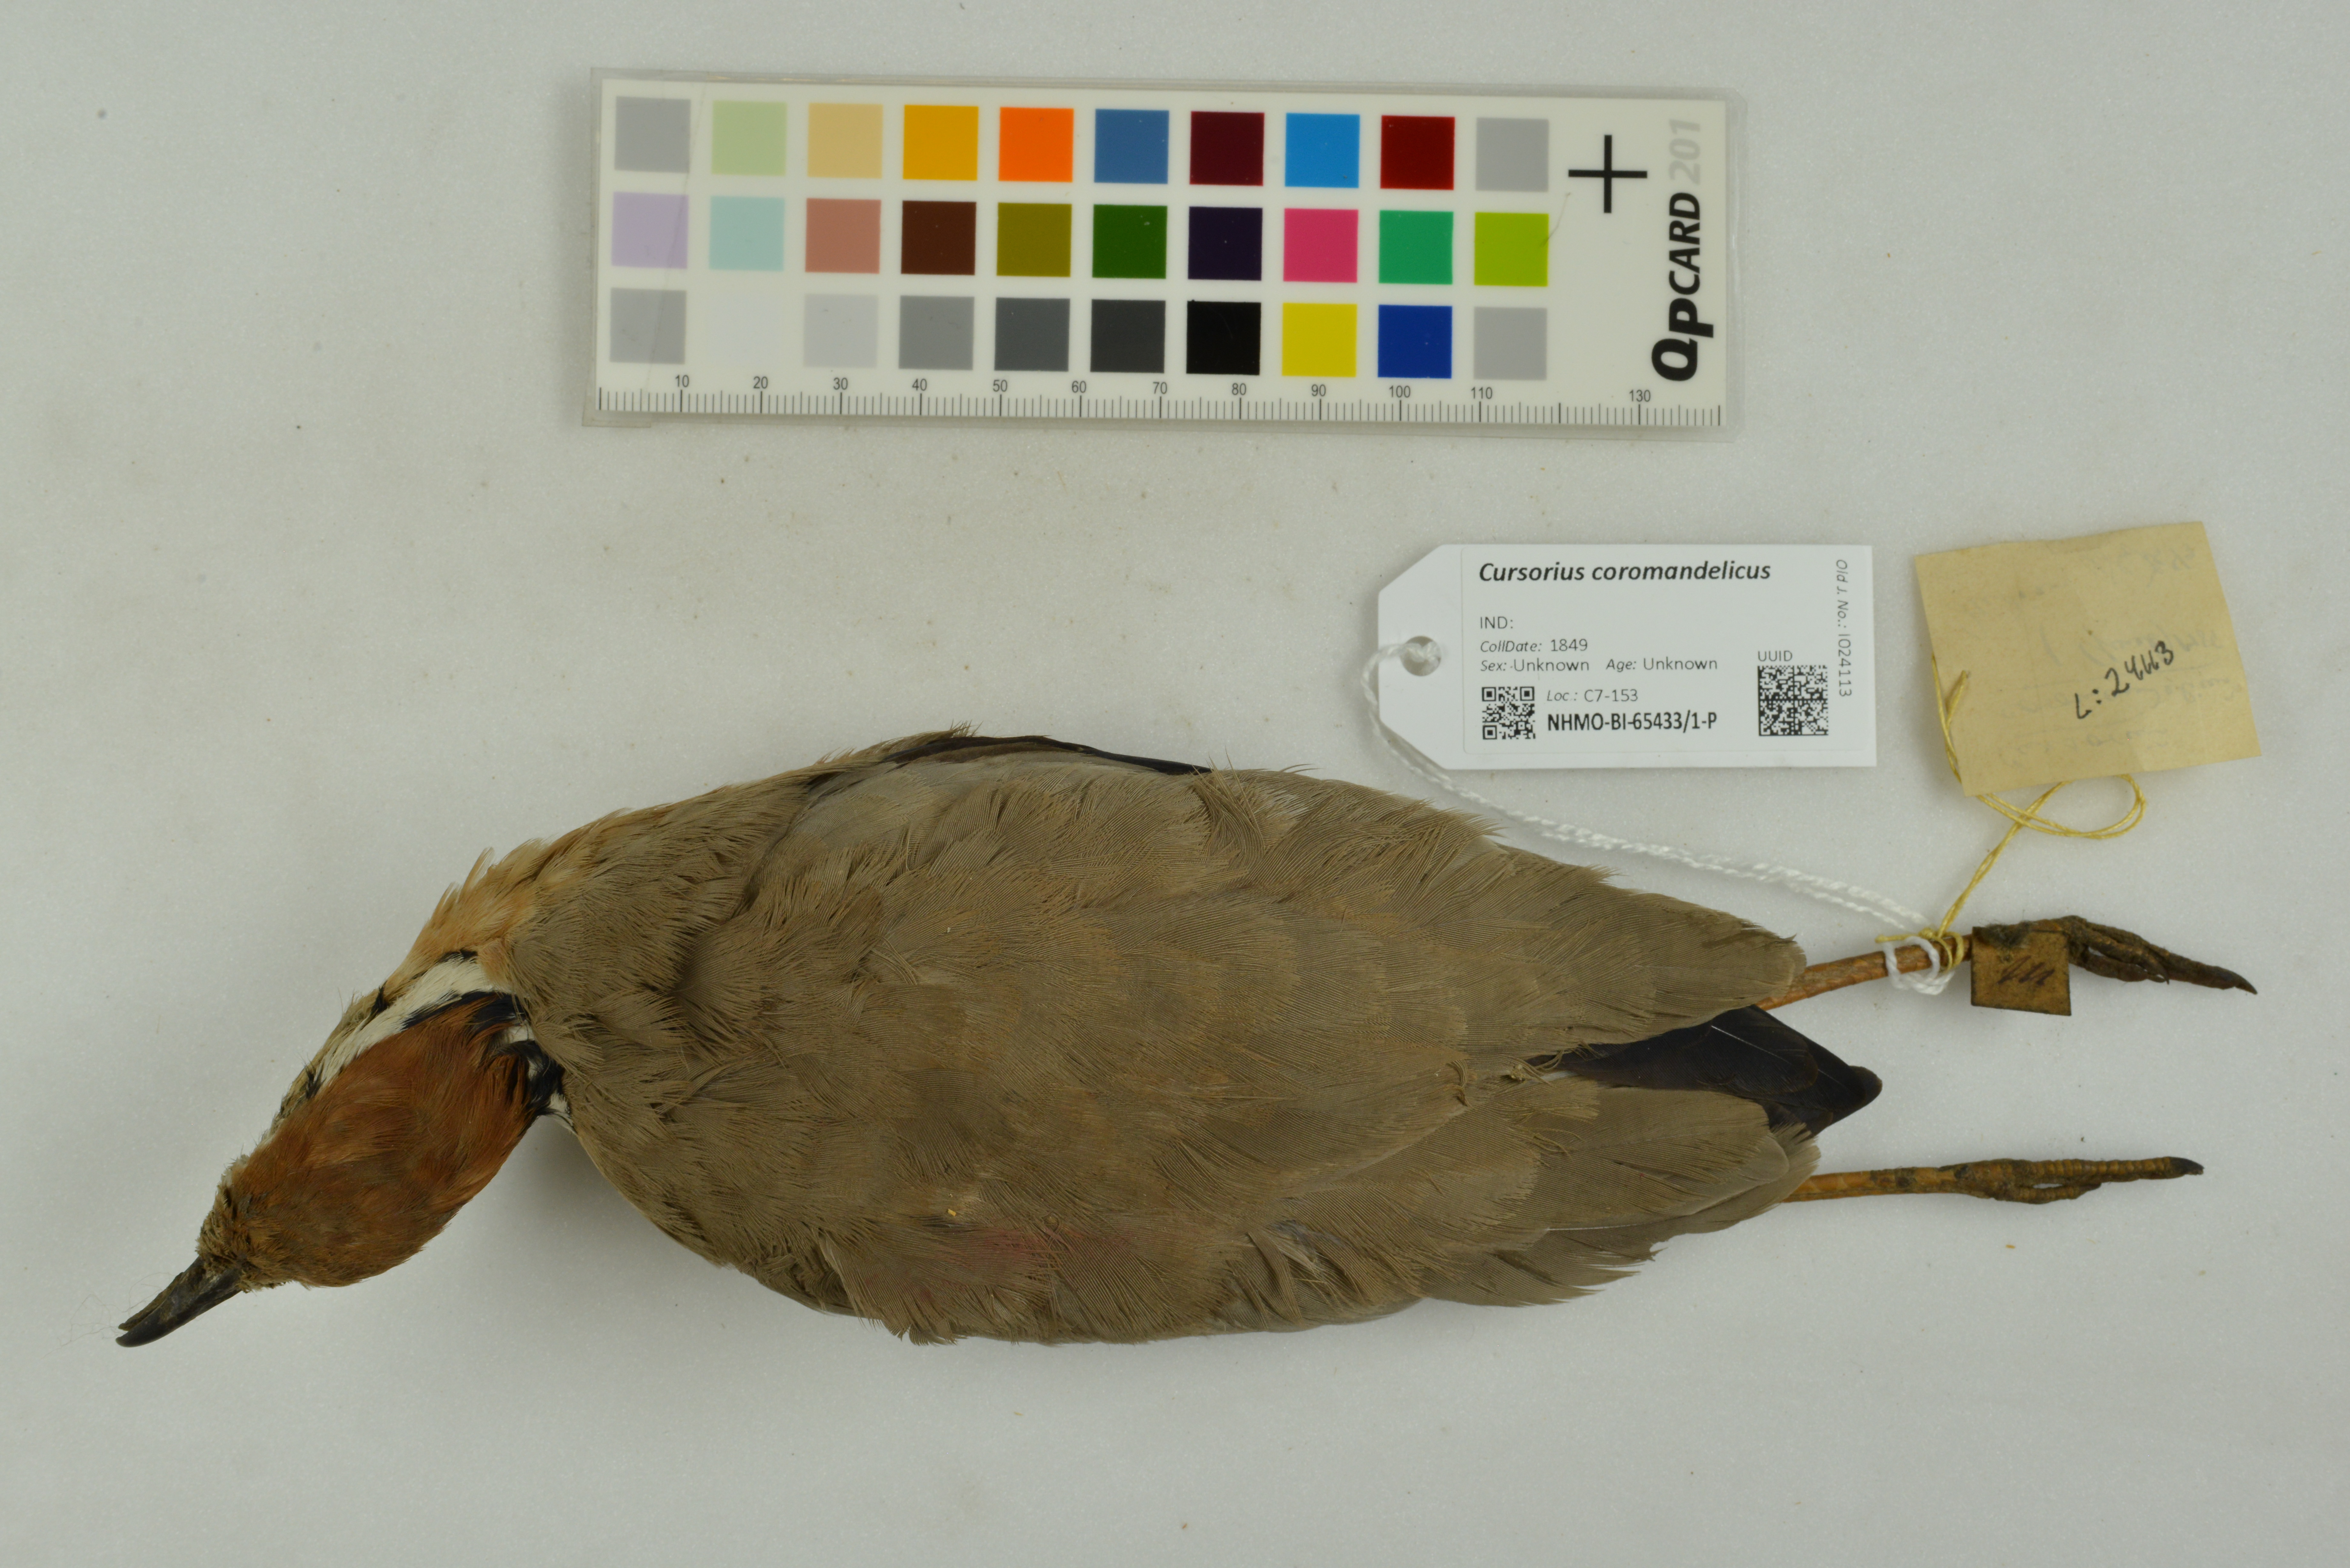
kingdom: Animalia
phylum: Chordata
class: Aves
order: Charadriiformes
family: Glareolidae
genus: Cursorius
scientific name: Cursorius coromandelicus
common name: Indian courser
